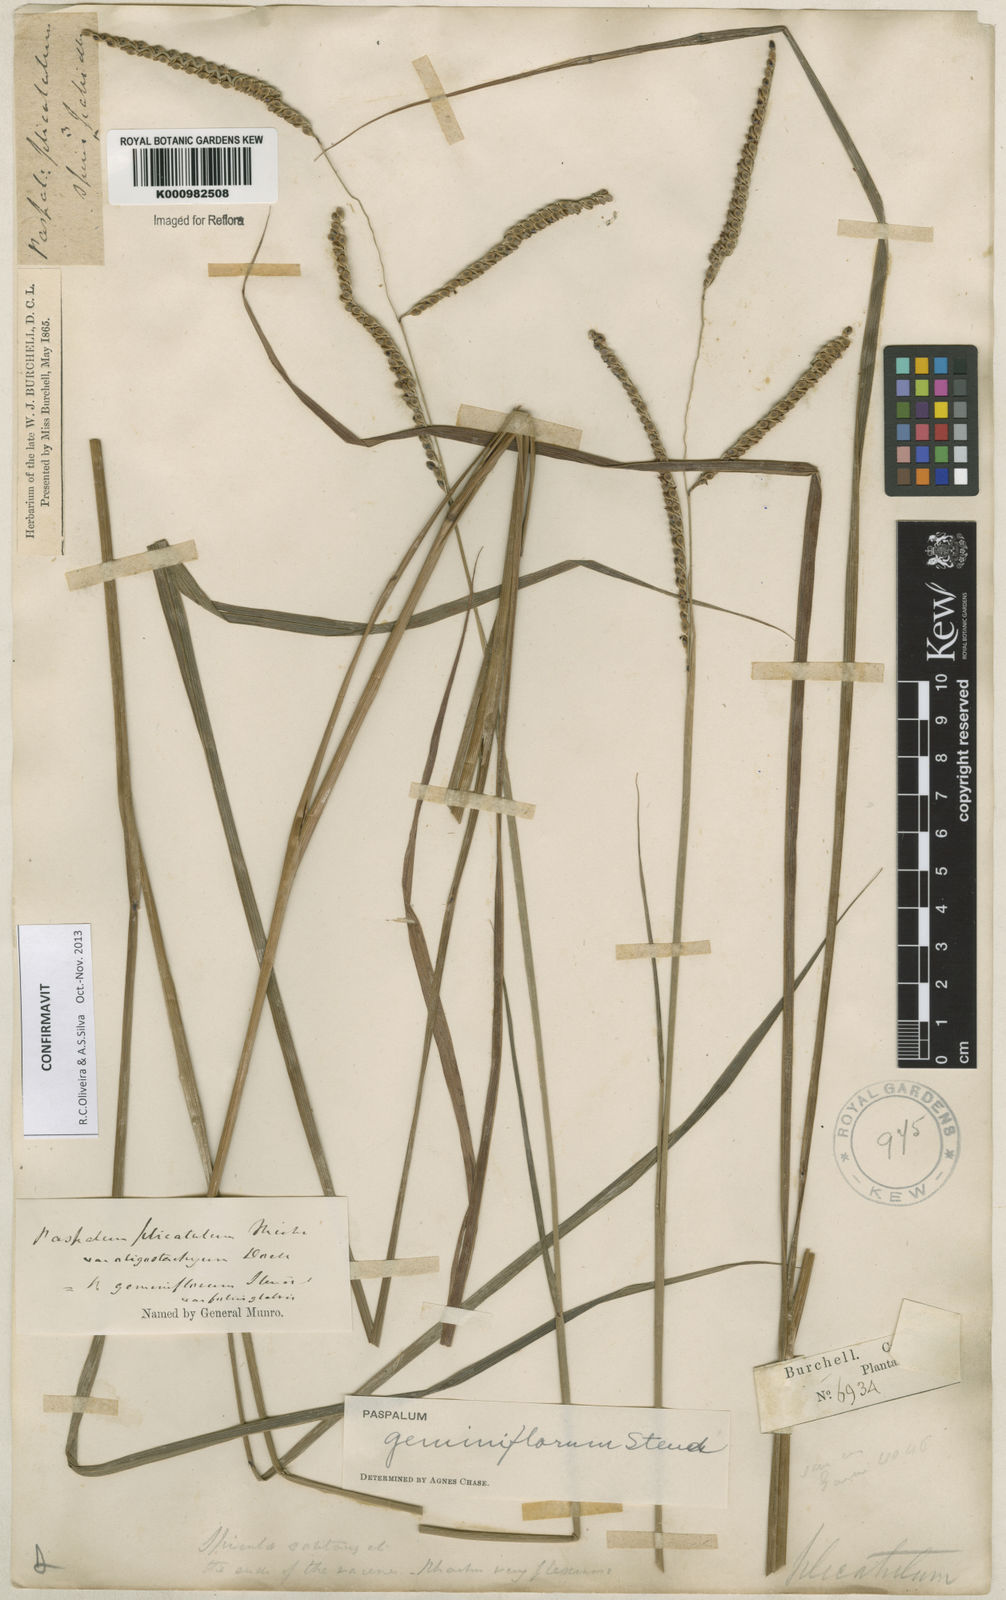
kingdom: Plantae
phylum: Tracheophyta
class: Liliopsida
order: Poales
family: Poaceae
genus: Paspalum
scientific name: Paspalum geminiflorum
